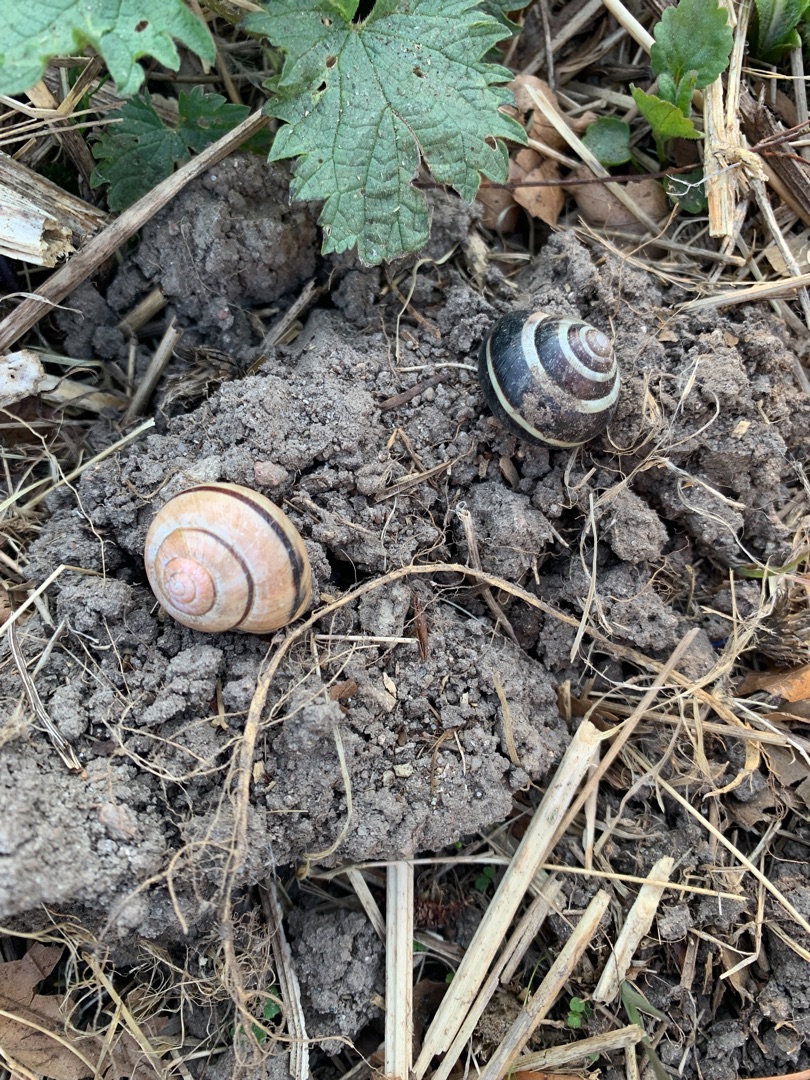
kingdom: Animalia
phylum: Mollusca
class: Gastropoda
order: Stylommatophora
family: Helicidae
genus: Cepaea
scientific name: Cepaea nemoralis
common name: Lundsnegl
